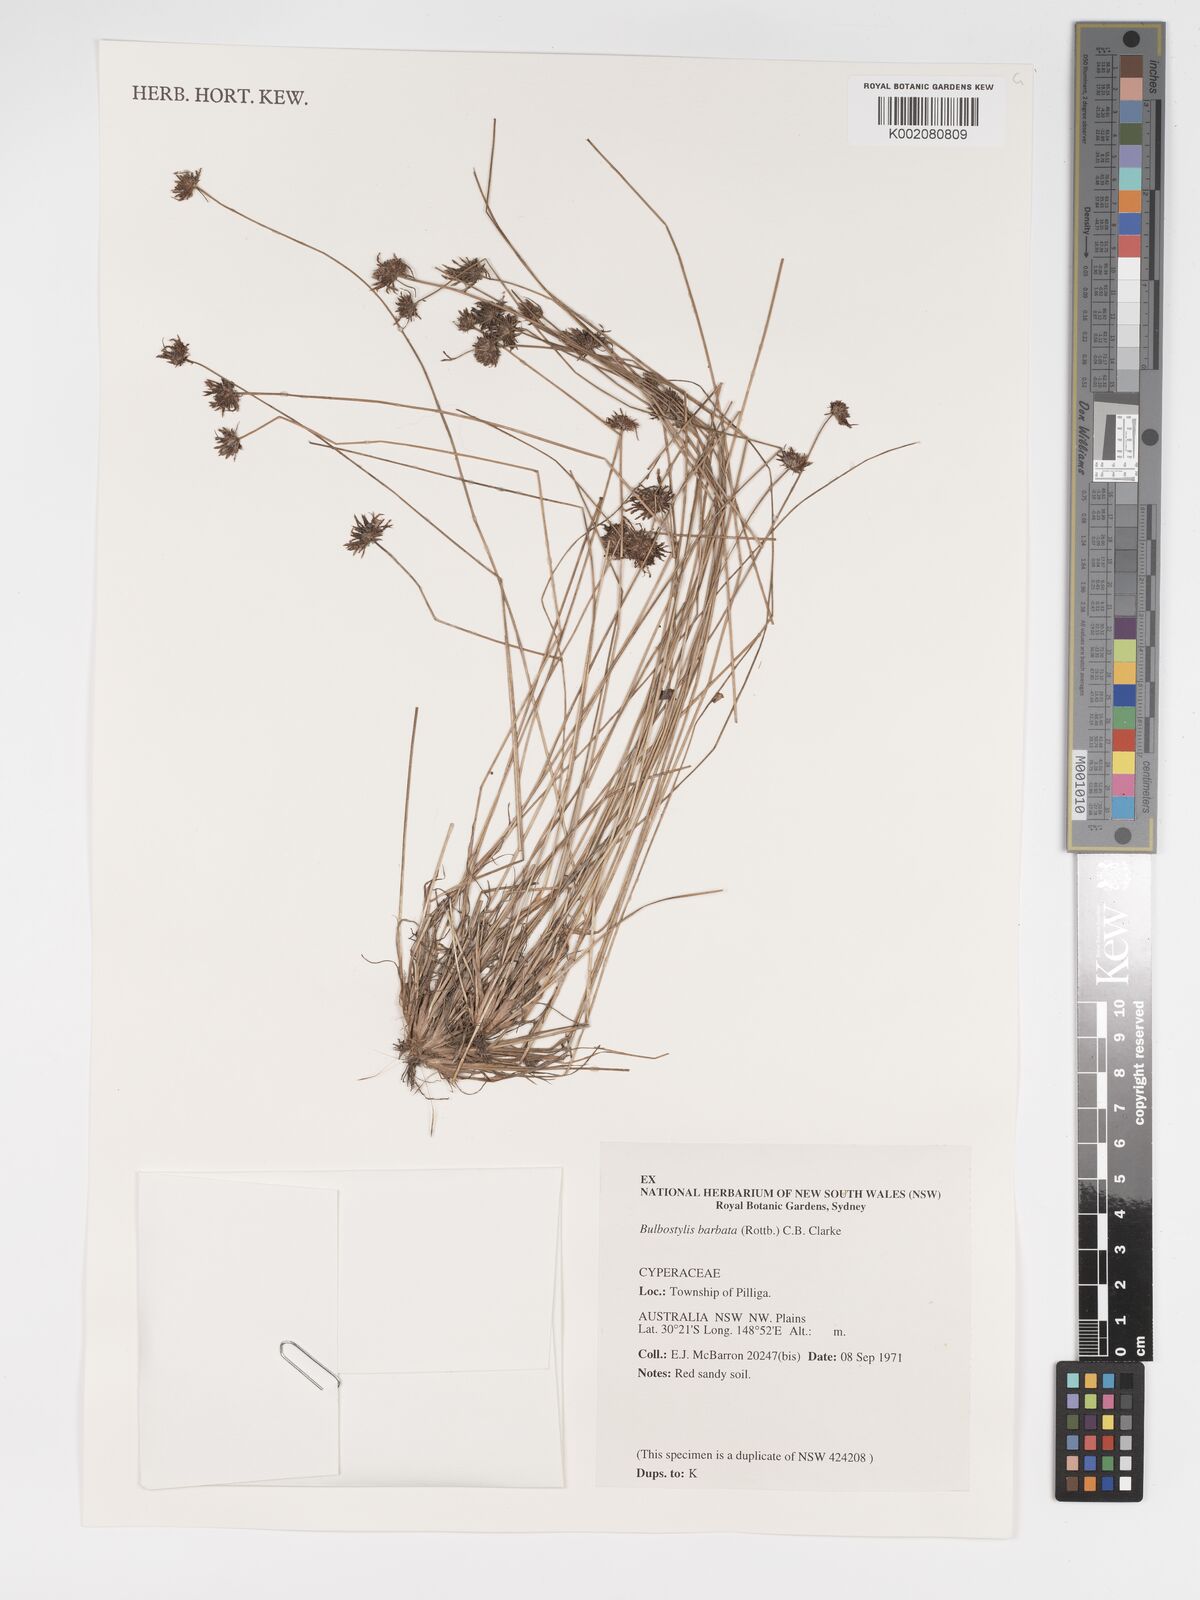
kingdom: Plantae
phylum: Tracheophyta
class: Liliopsida
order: Poales
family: Cyperaceae
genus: Bulbostylis
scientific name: Bulbostylis barbata
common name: Watergrass
